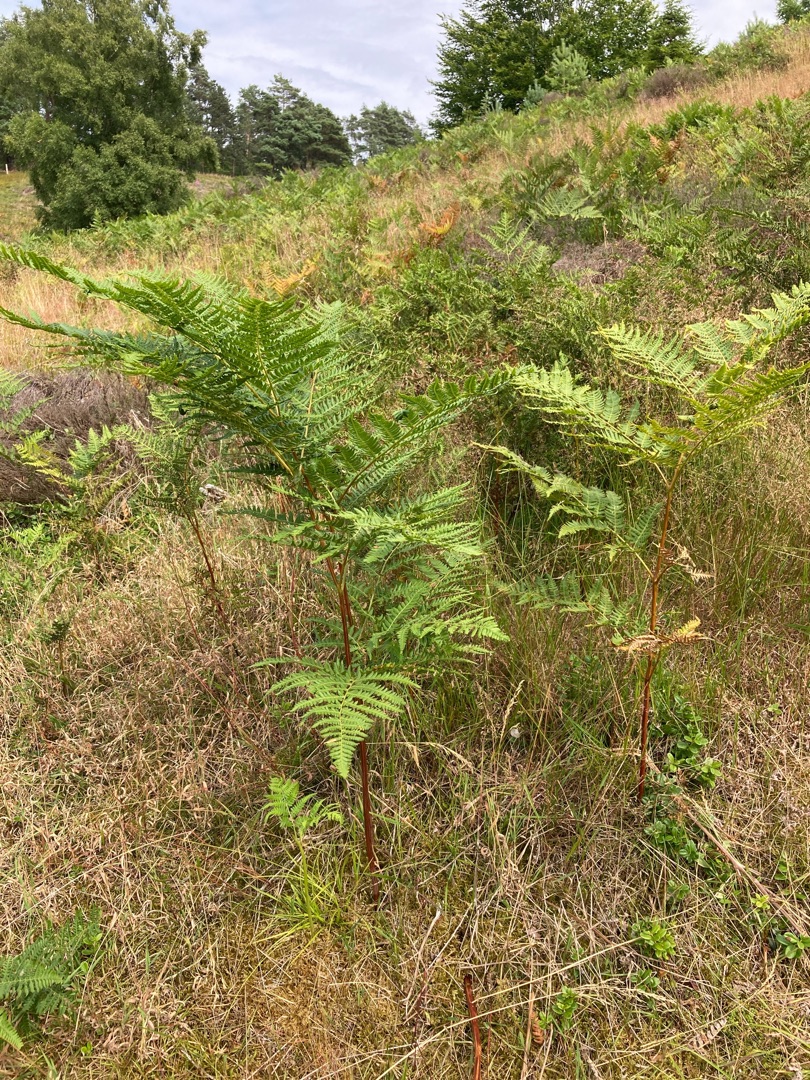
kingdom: Plantae
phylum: Tracheophyta
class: Polypodiopsida
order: Polypodiales
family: Dennstaedtiaceae
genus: Pteridium
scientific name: Pteridium aquilinum
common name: Ørnebregne
